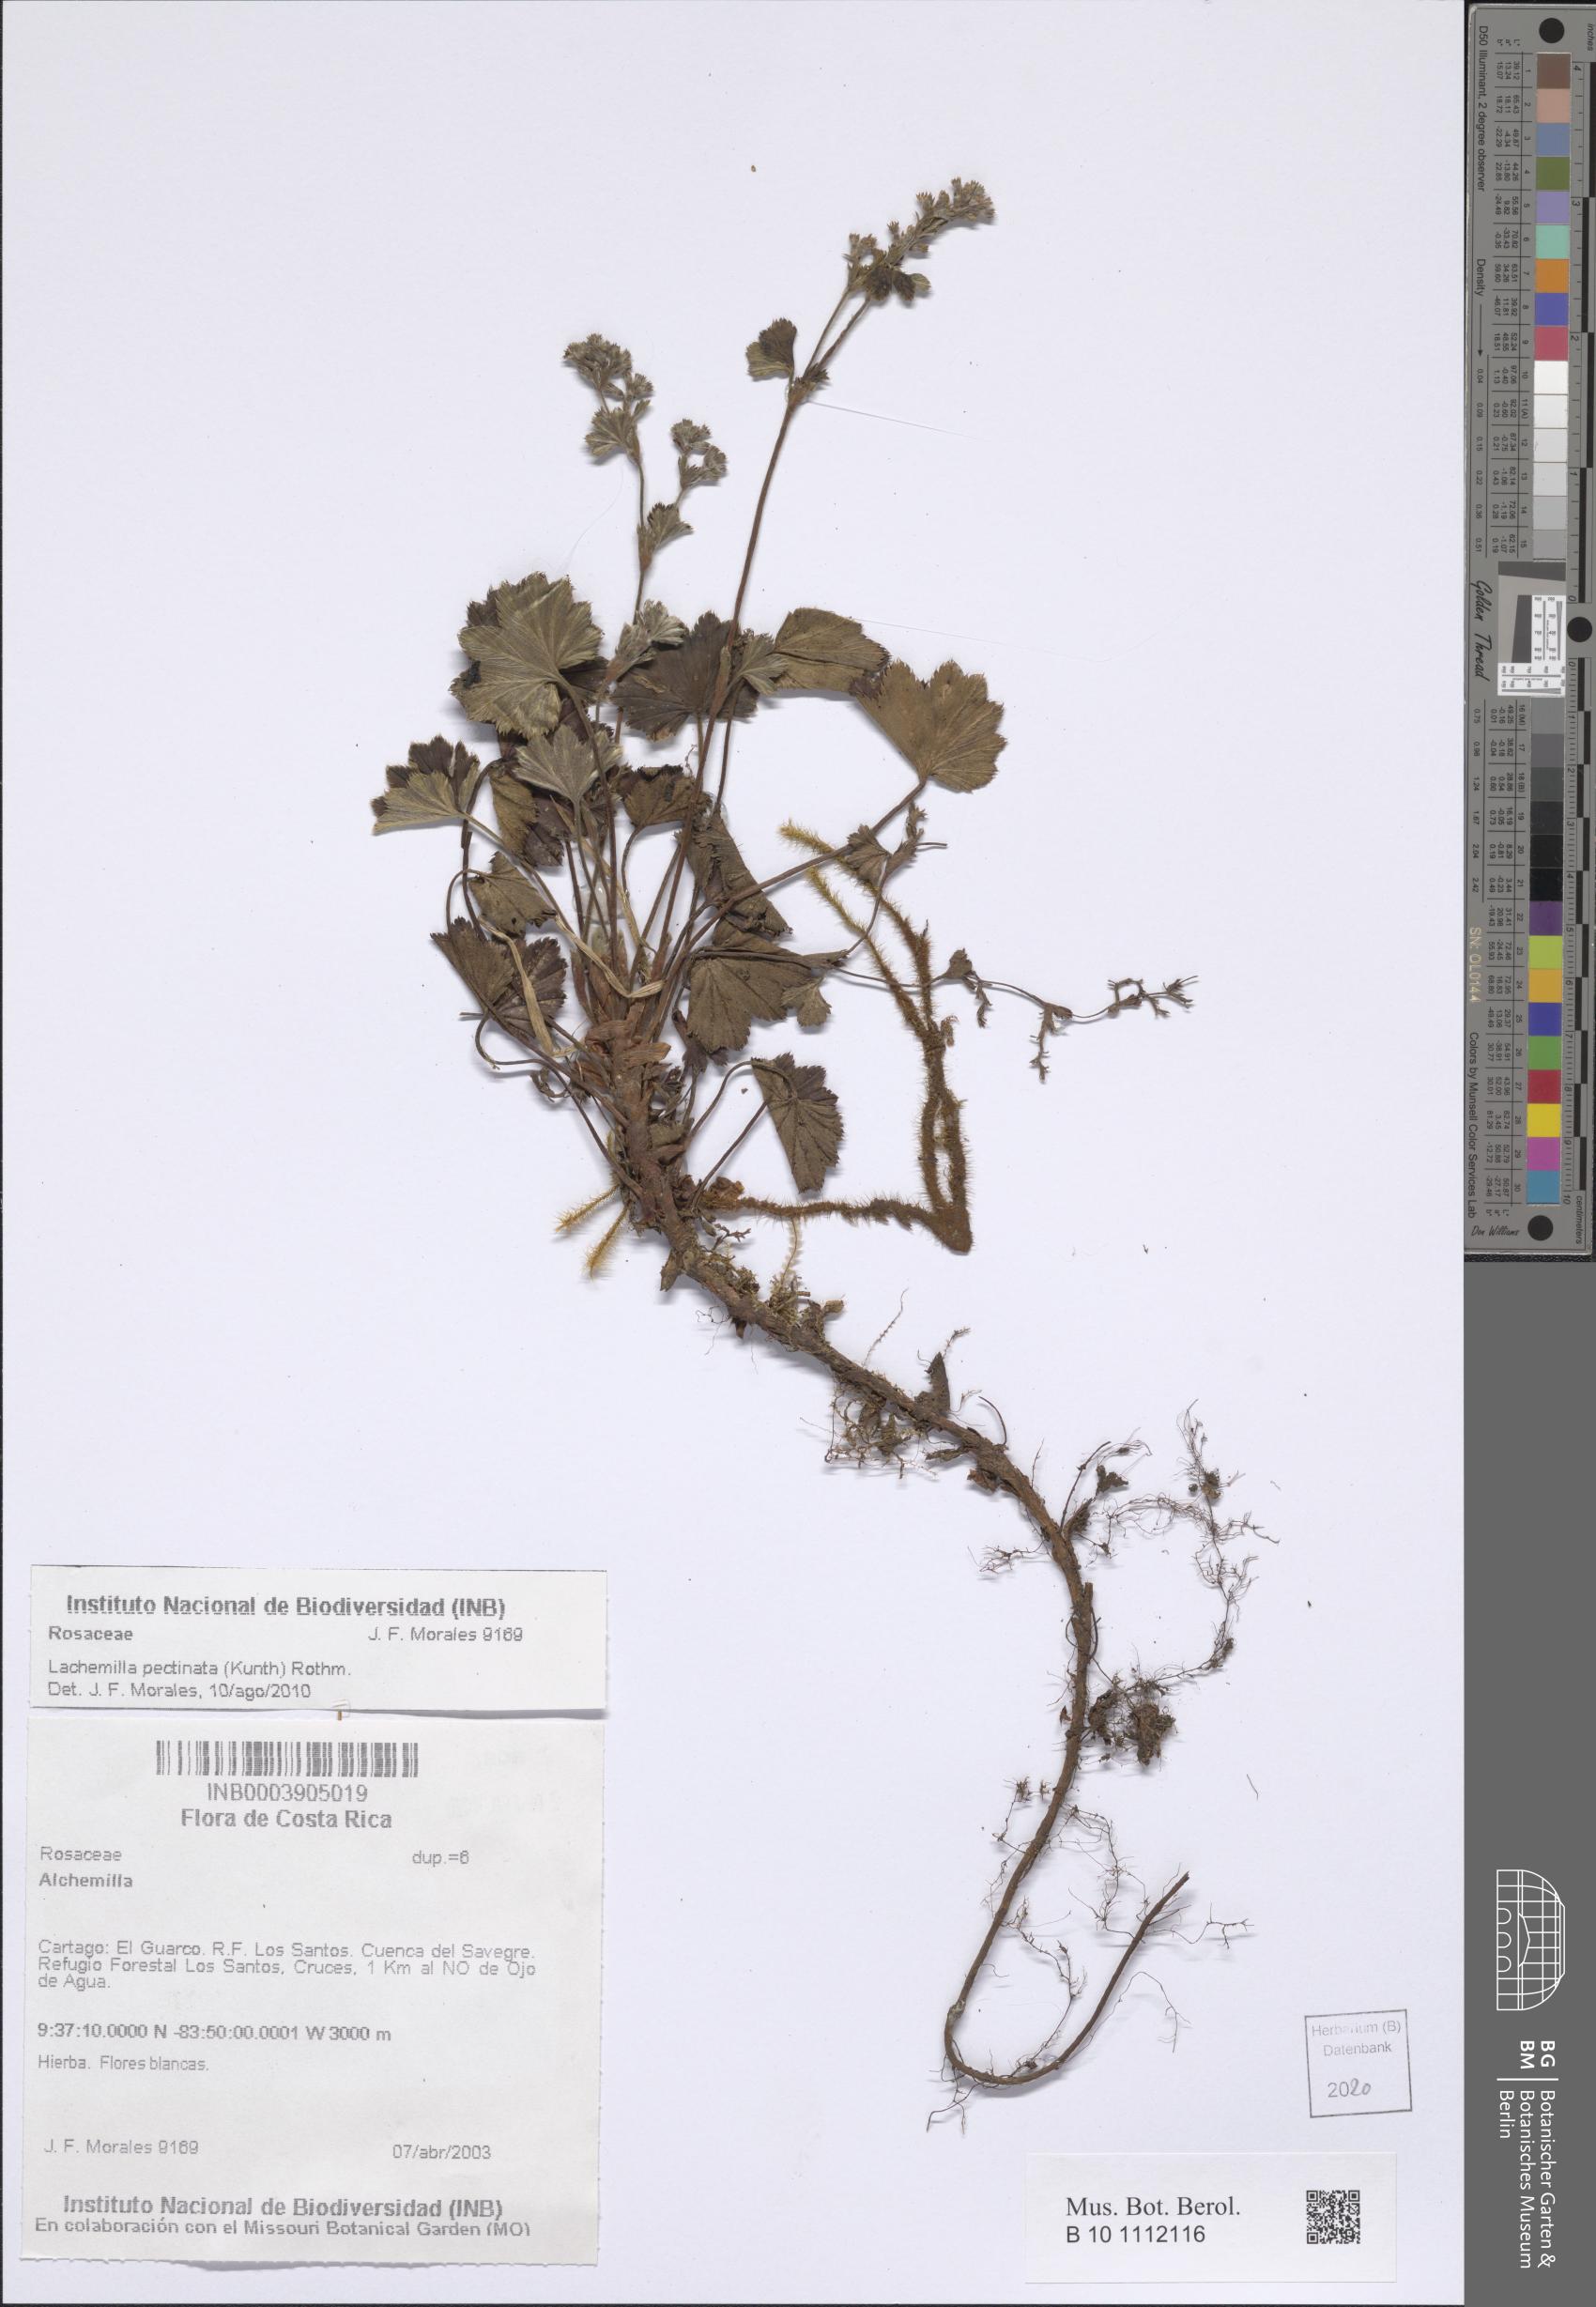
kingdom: Plantae
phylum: Tracheophyta
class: Magnoliopsida
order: Rosales
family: Rosaceae
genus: Lachemilla
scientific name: Lachemilla pectinata
